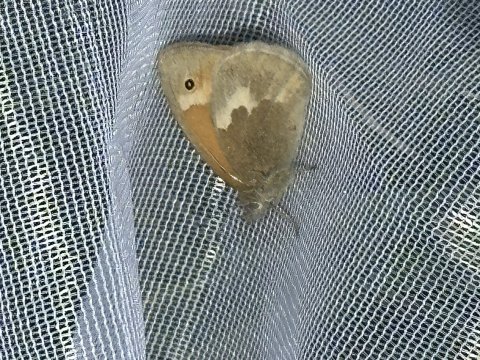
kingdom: Animalia
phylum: Arthropoda
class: Insecta
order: Lepidoptera
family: Nymphalidae
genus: Coenonympha
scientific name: Coenonympha tullia
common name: Large Heath
